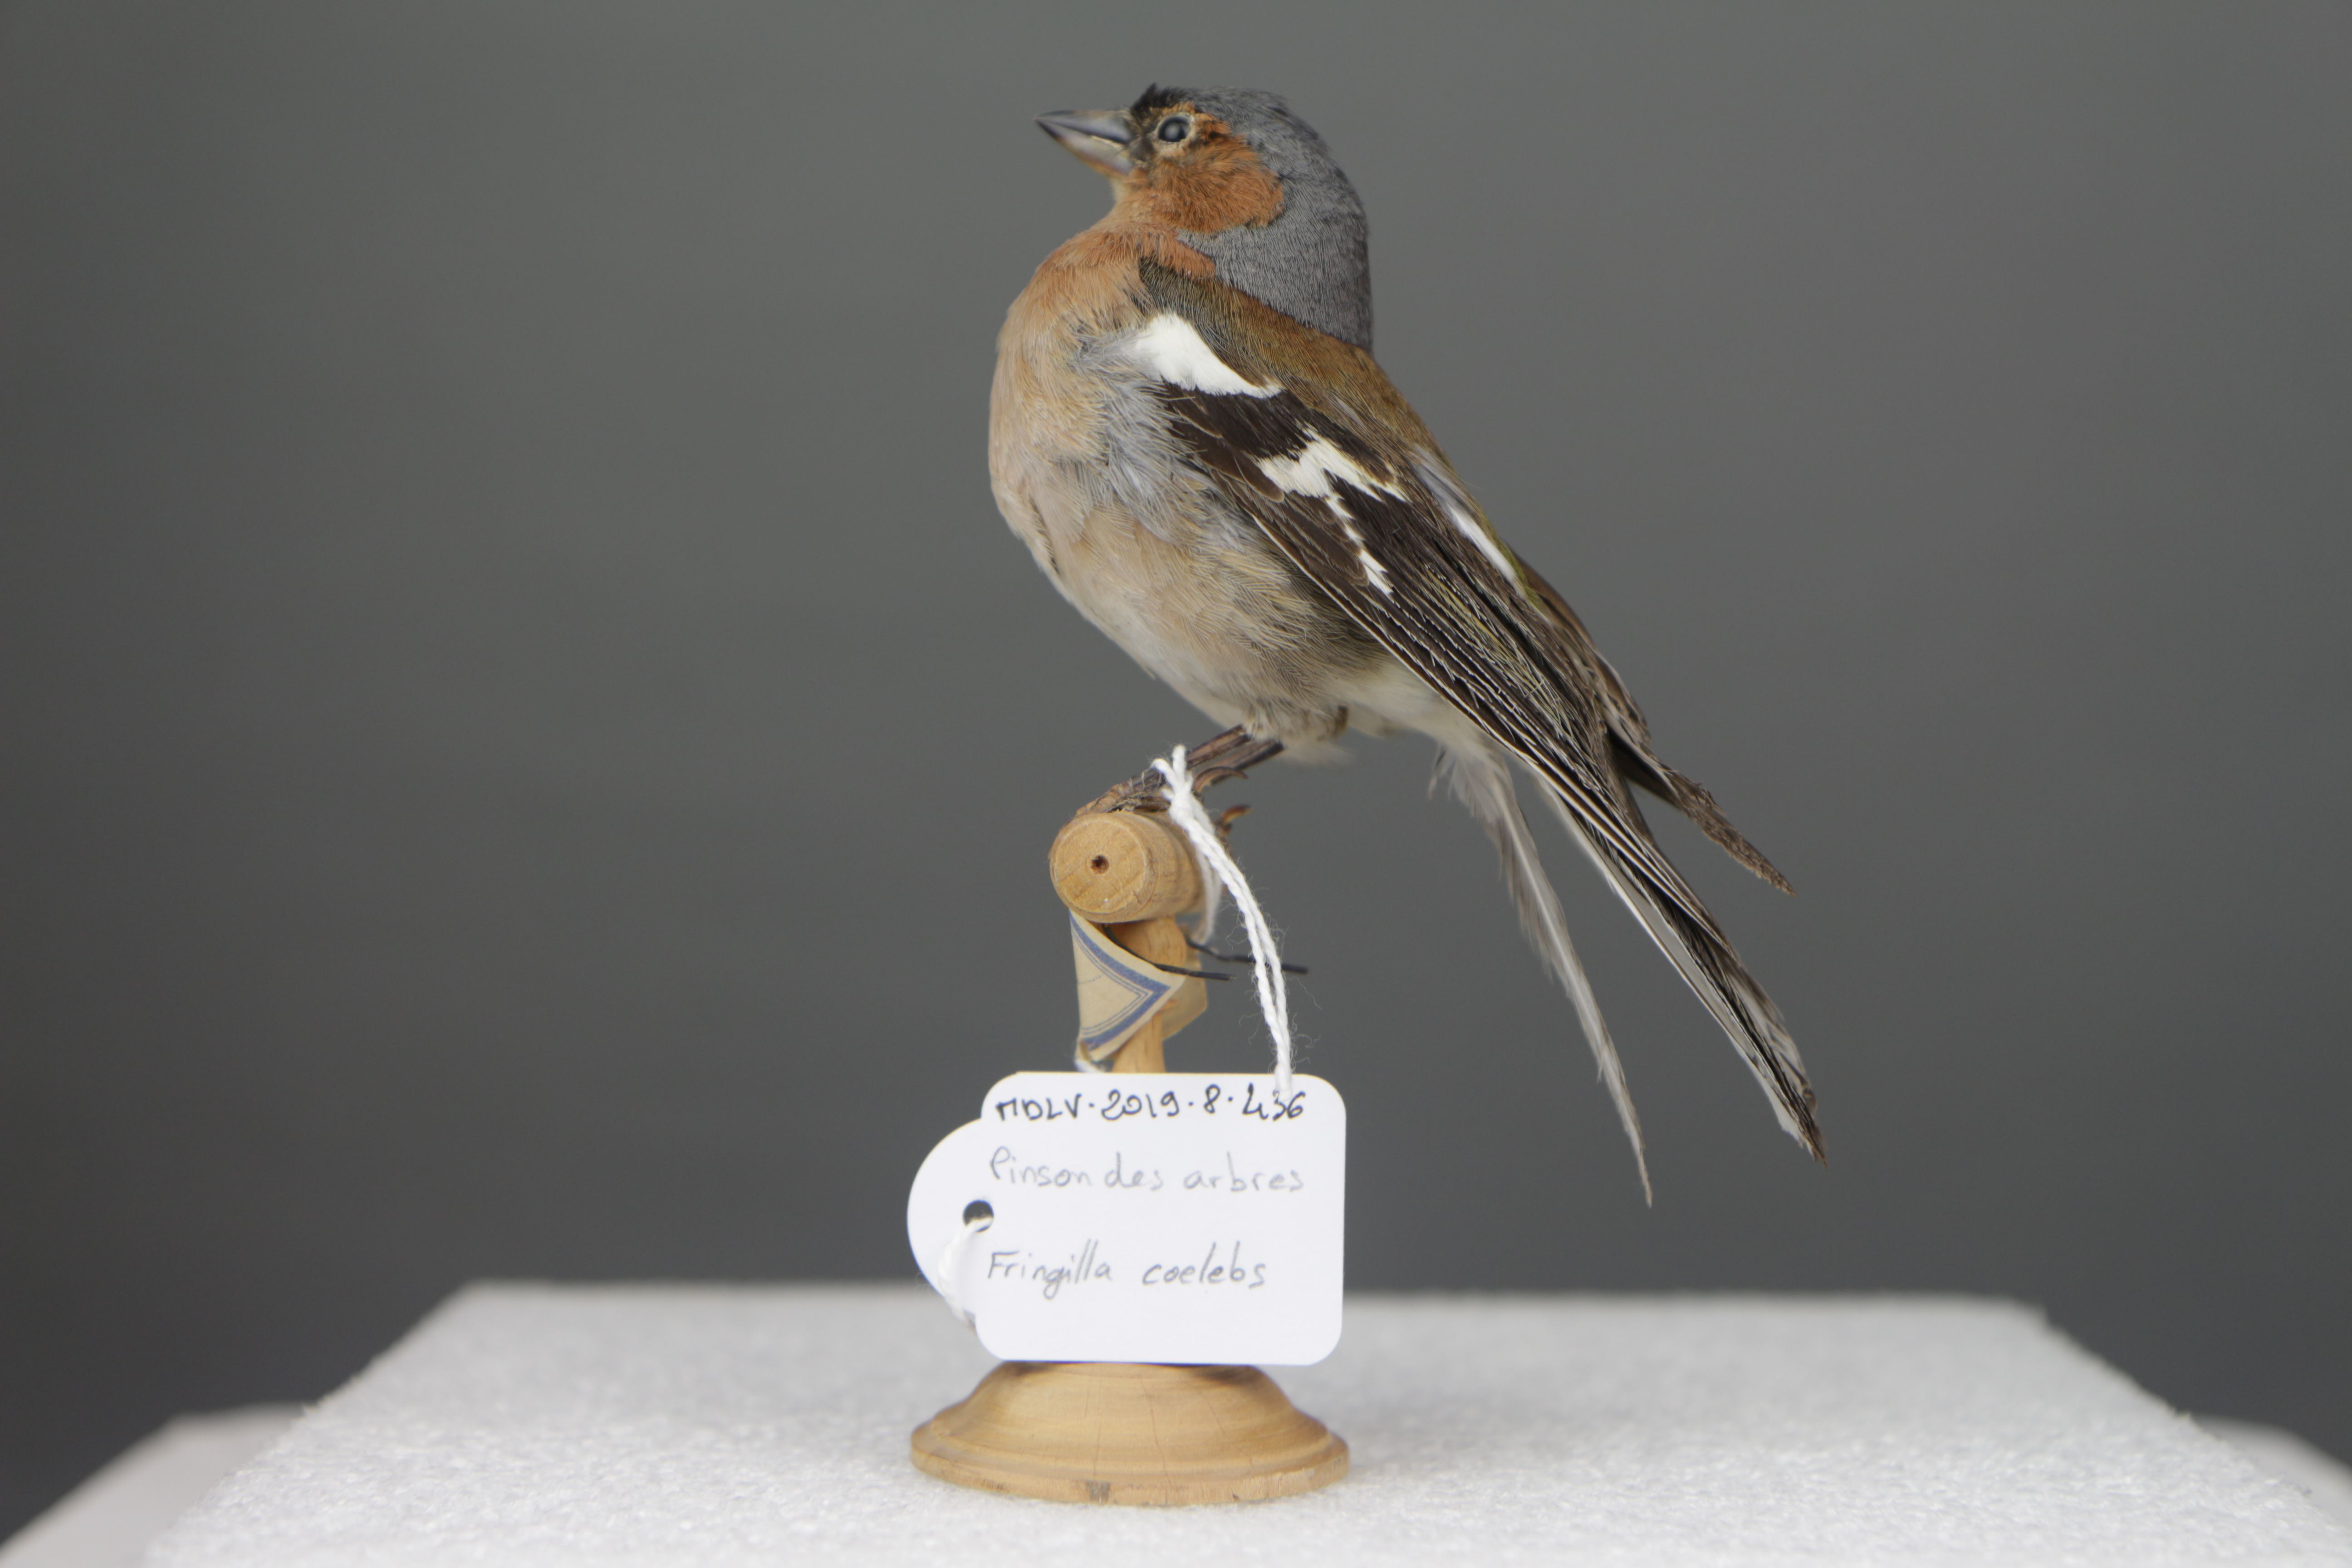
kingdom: Animalia
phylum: Chordata
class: Aves
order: Passeriformes
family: Fringillidae
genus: Fringilla
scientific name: Fringilla coelebs
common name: Common chaffinch
